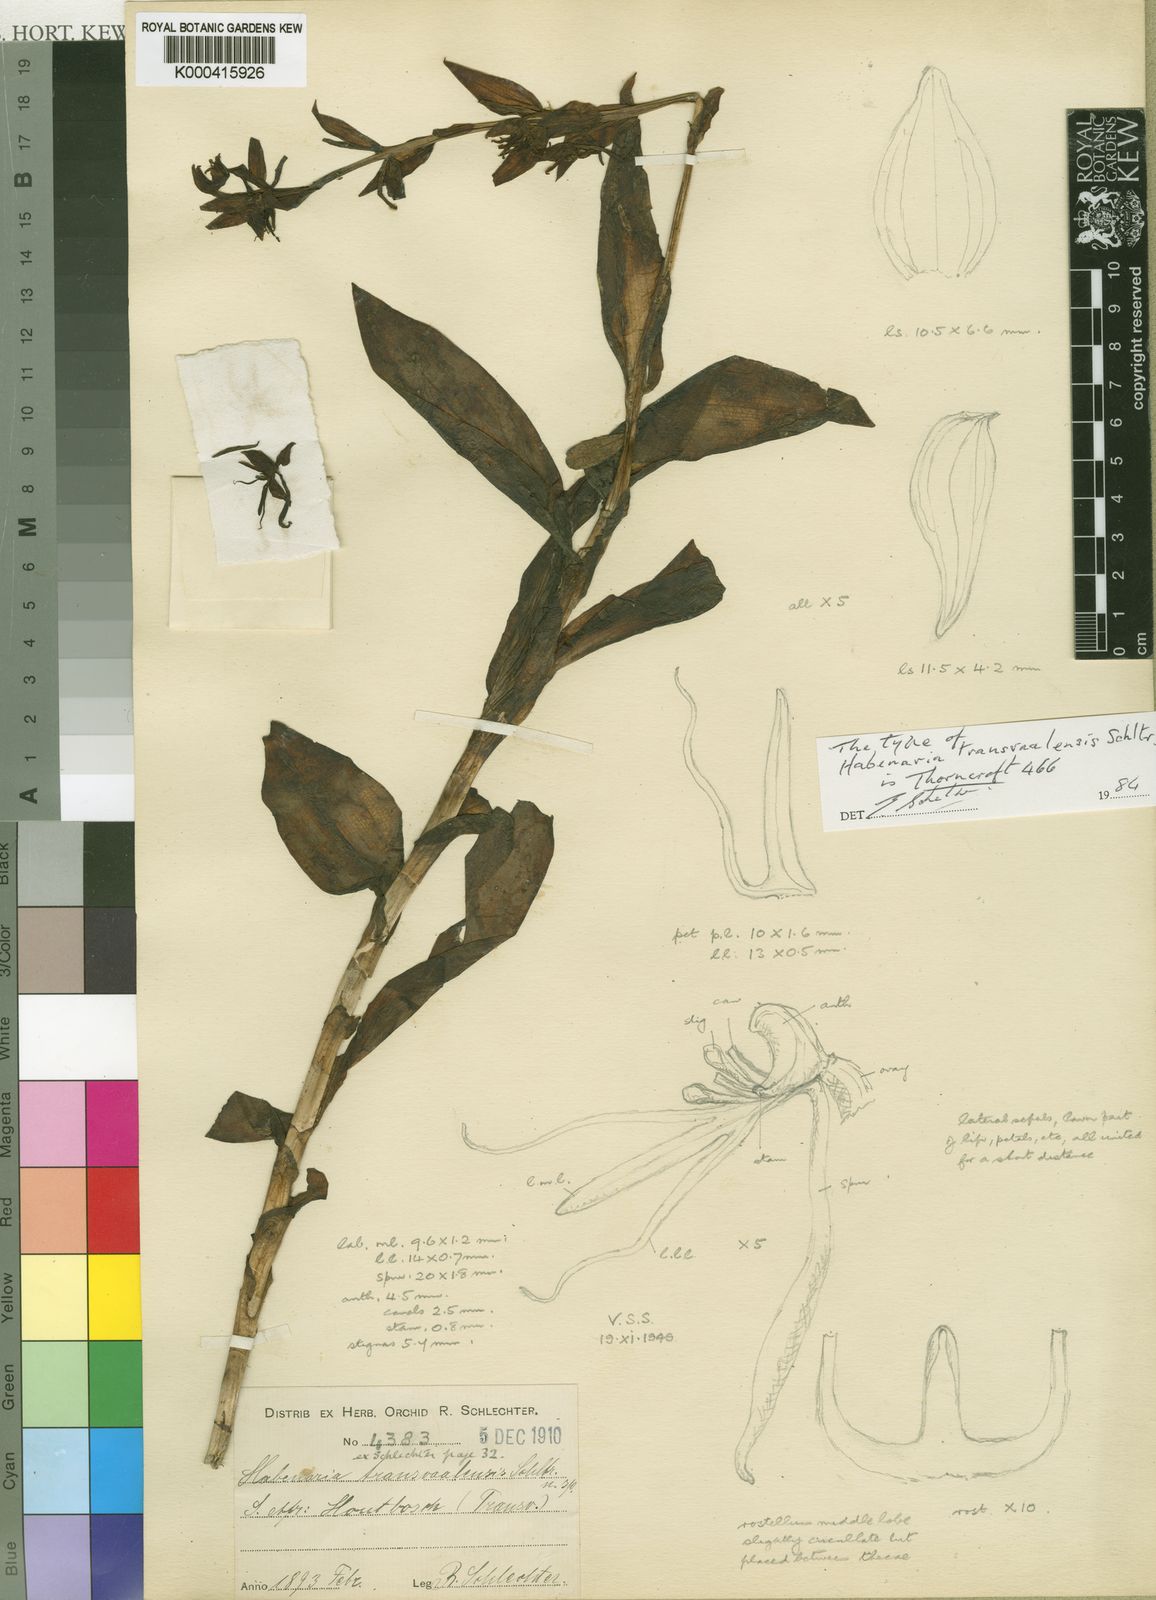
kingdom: Plantae
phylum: Tracheophyta
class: Liliopsida
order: Asparagales
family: Orchidaceae
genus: Habenaria
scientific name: Habenaria transvaalensis
